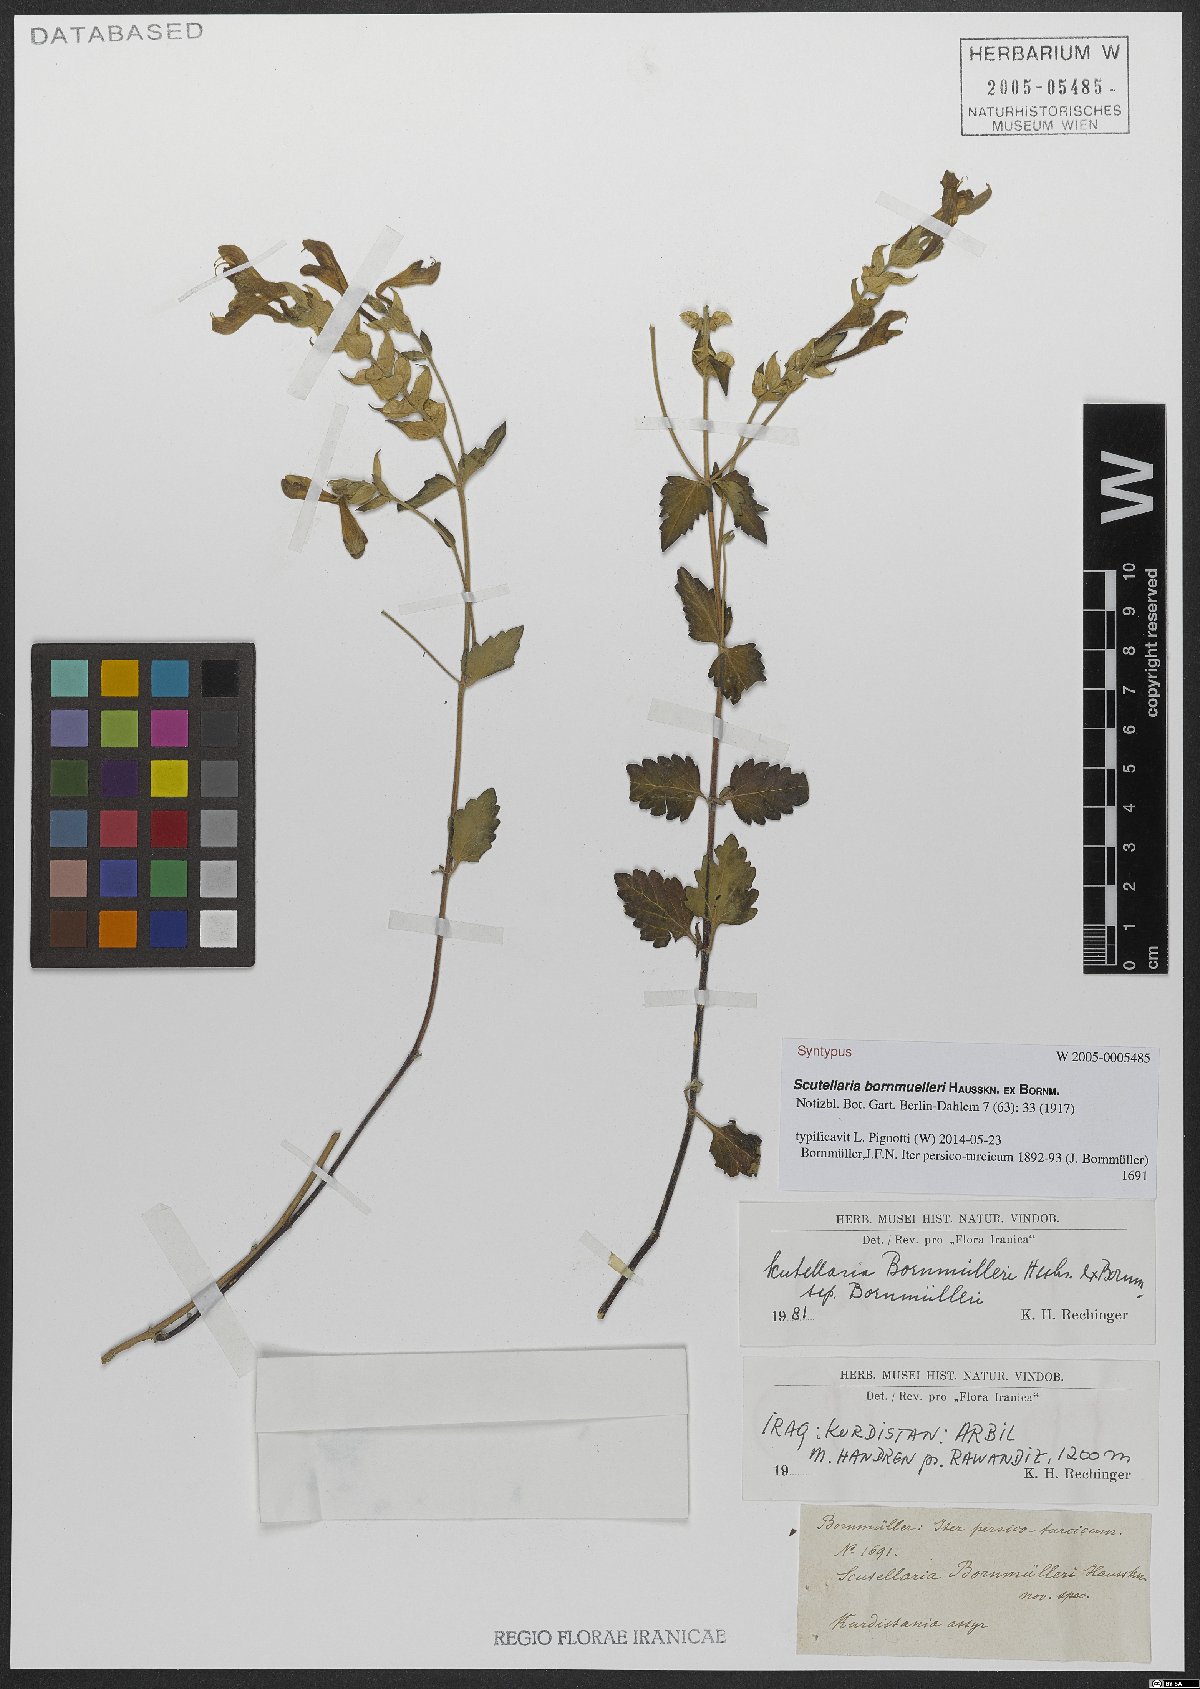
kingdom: Plantae
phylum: Tracheophyta
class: Magnoliopsida
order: Lamiales
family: Lamiaceae
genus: Scutellaria
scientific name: Scutellaria bornmuelleri
